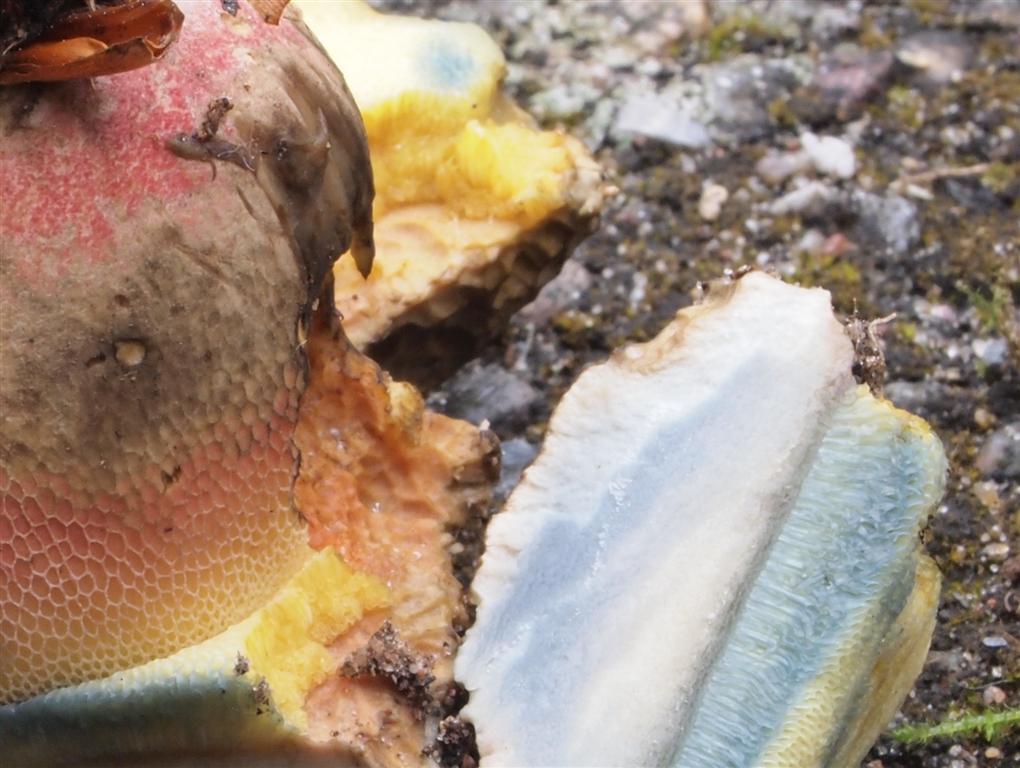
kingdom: Fungi
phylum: Basidiomycota
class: Agaricomycetes
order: Boletales
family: Boletaceae
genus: Caloboletus
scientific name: Caloboletus radicans
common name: rod-rørhat
